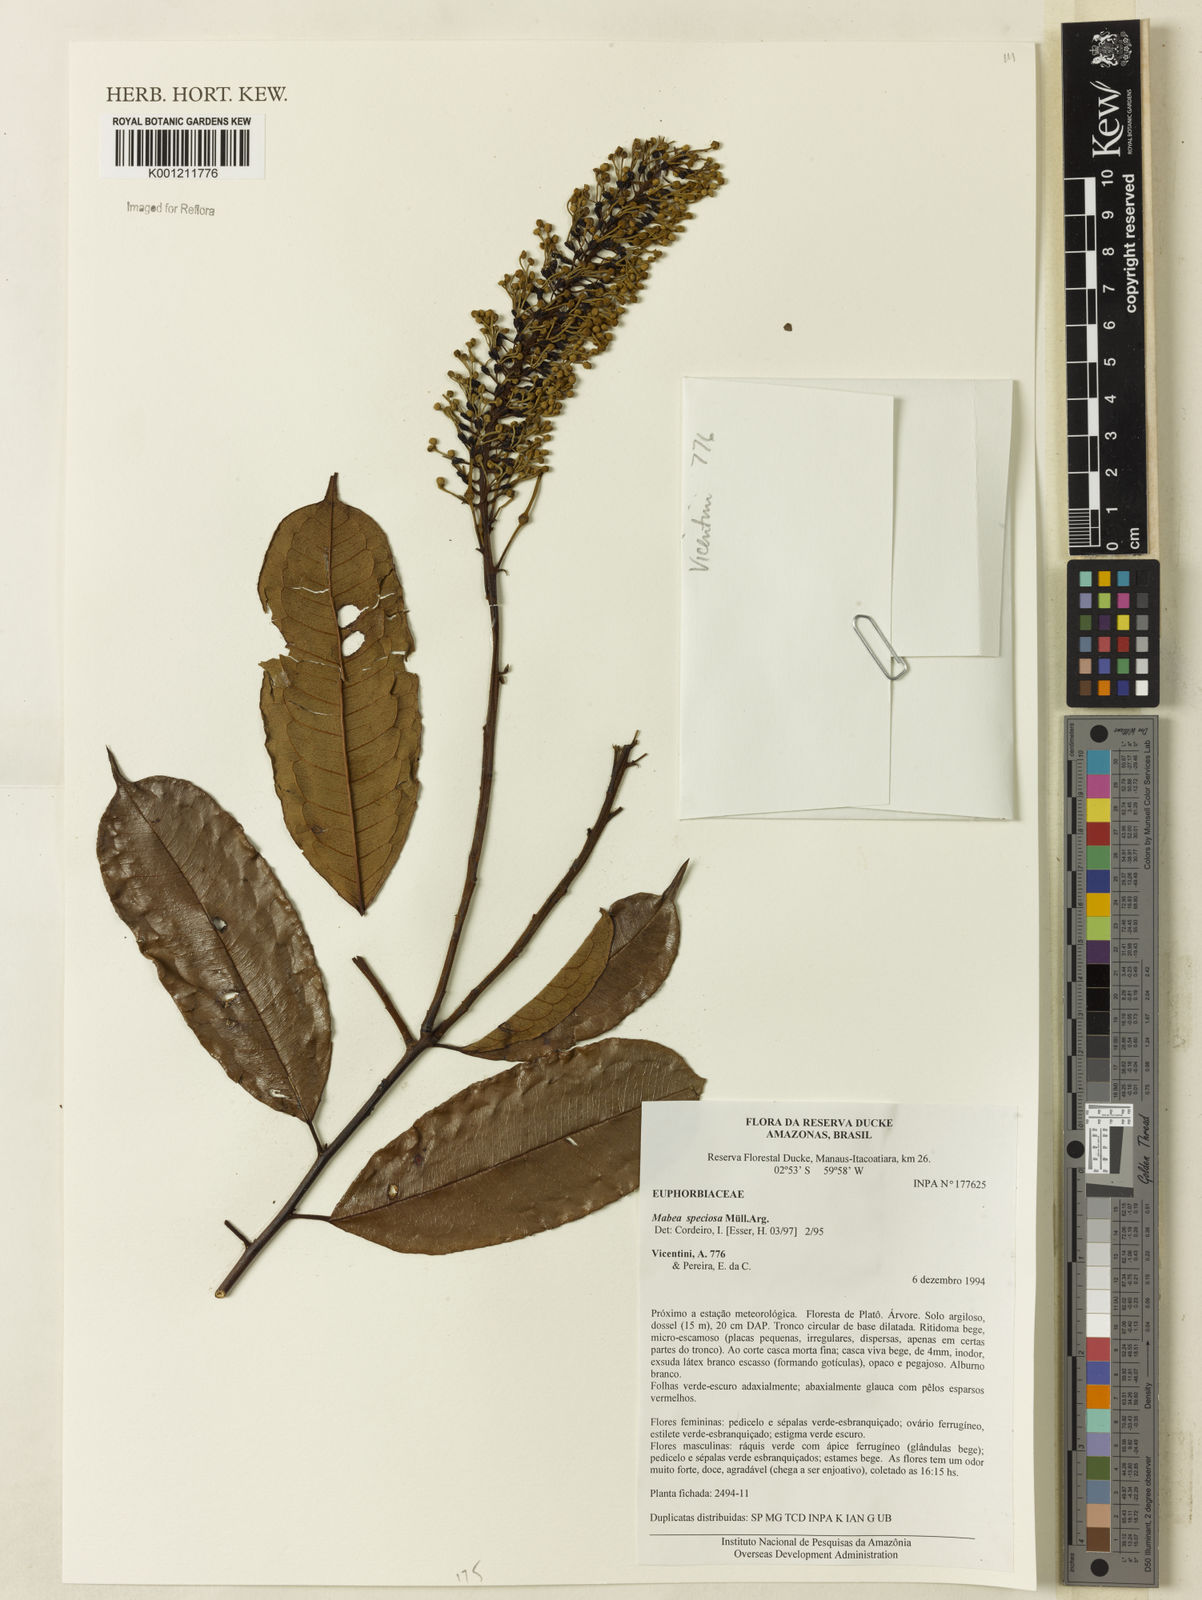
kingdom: Plantae
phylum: Tracheophyta
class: Magnoliopsida
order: Malpighiales
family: Euphorbiaceae
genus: Mabea
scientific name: Mabea
